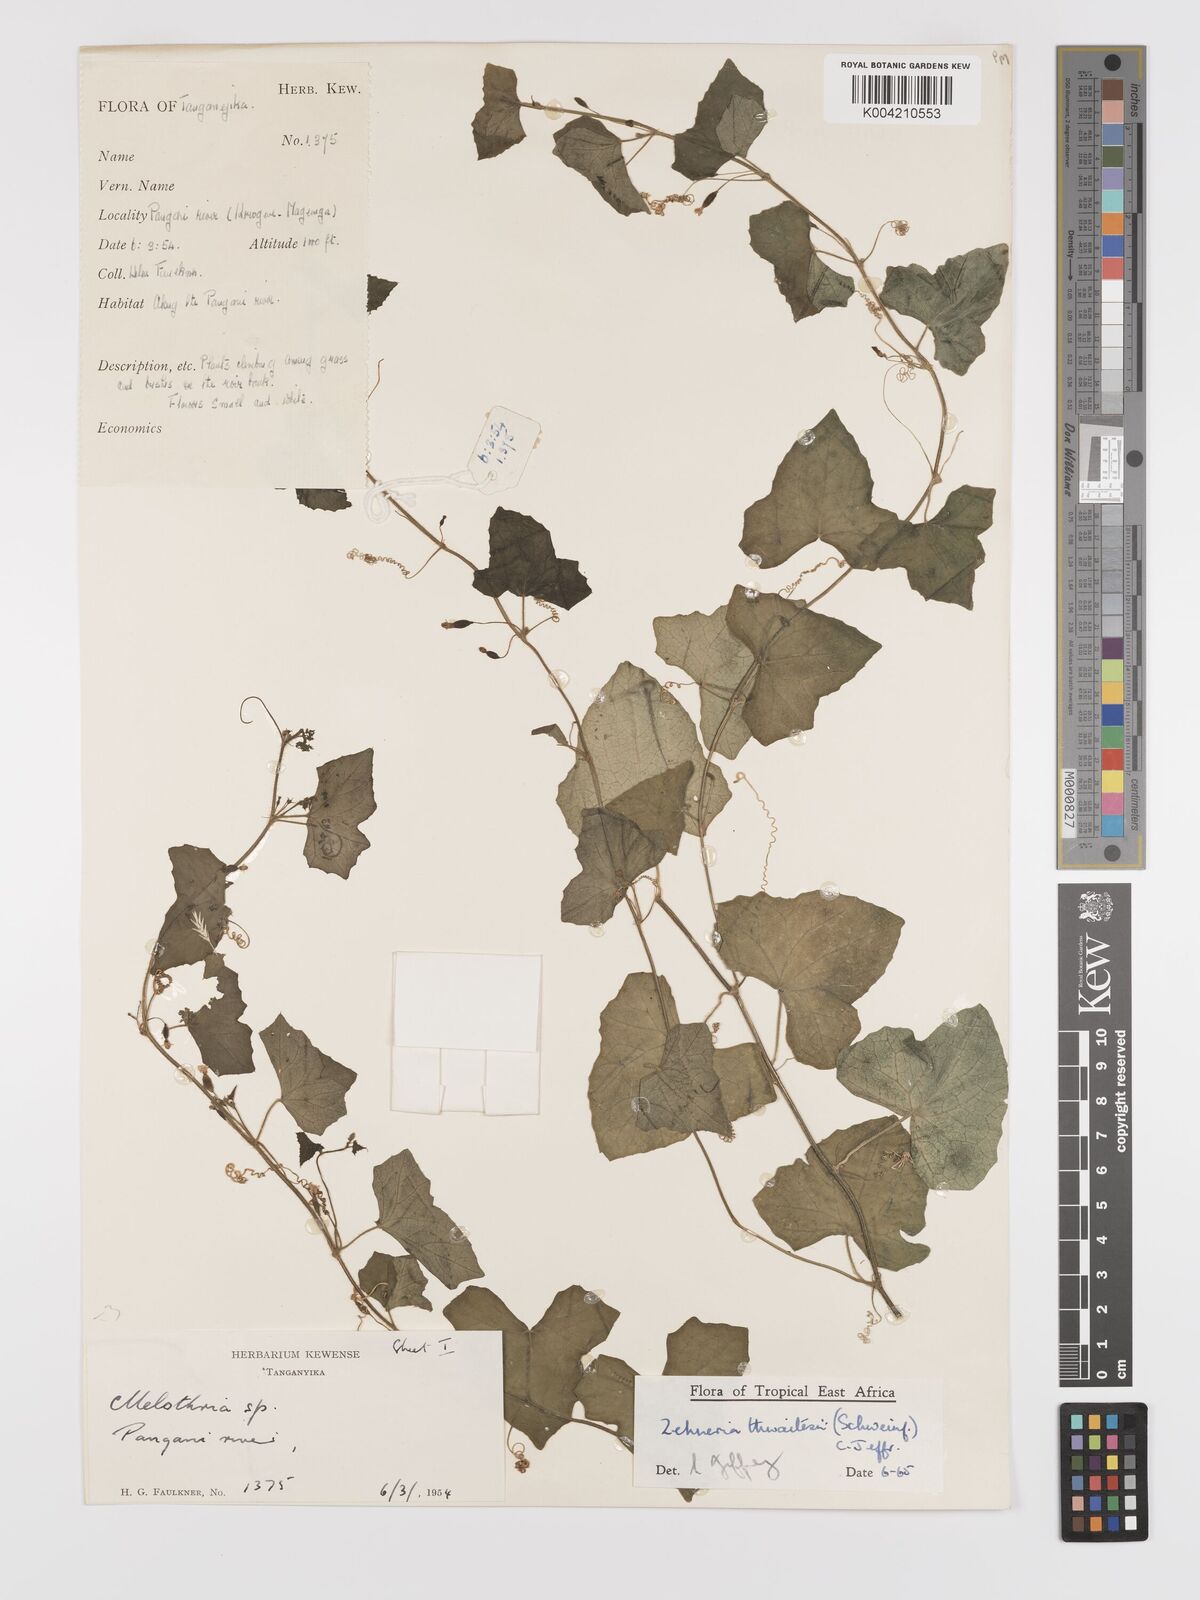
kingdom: Plantae
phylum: Tracheophyta
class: Magnoliopsida
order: Cucurbitales
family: Cucurbitaceae
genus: Zehneria
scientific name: Zehneria thwaitesii
